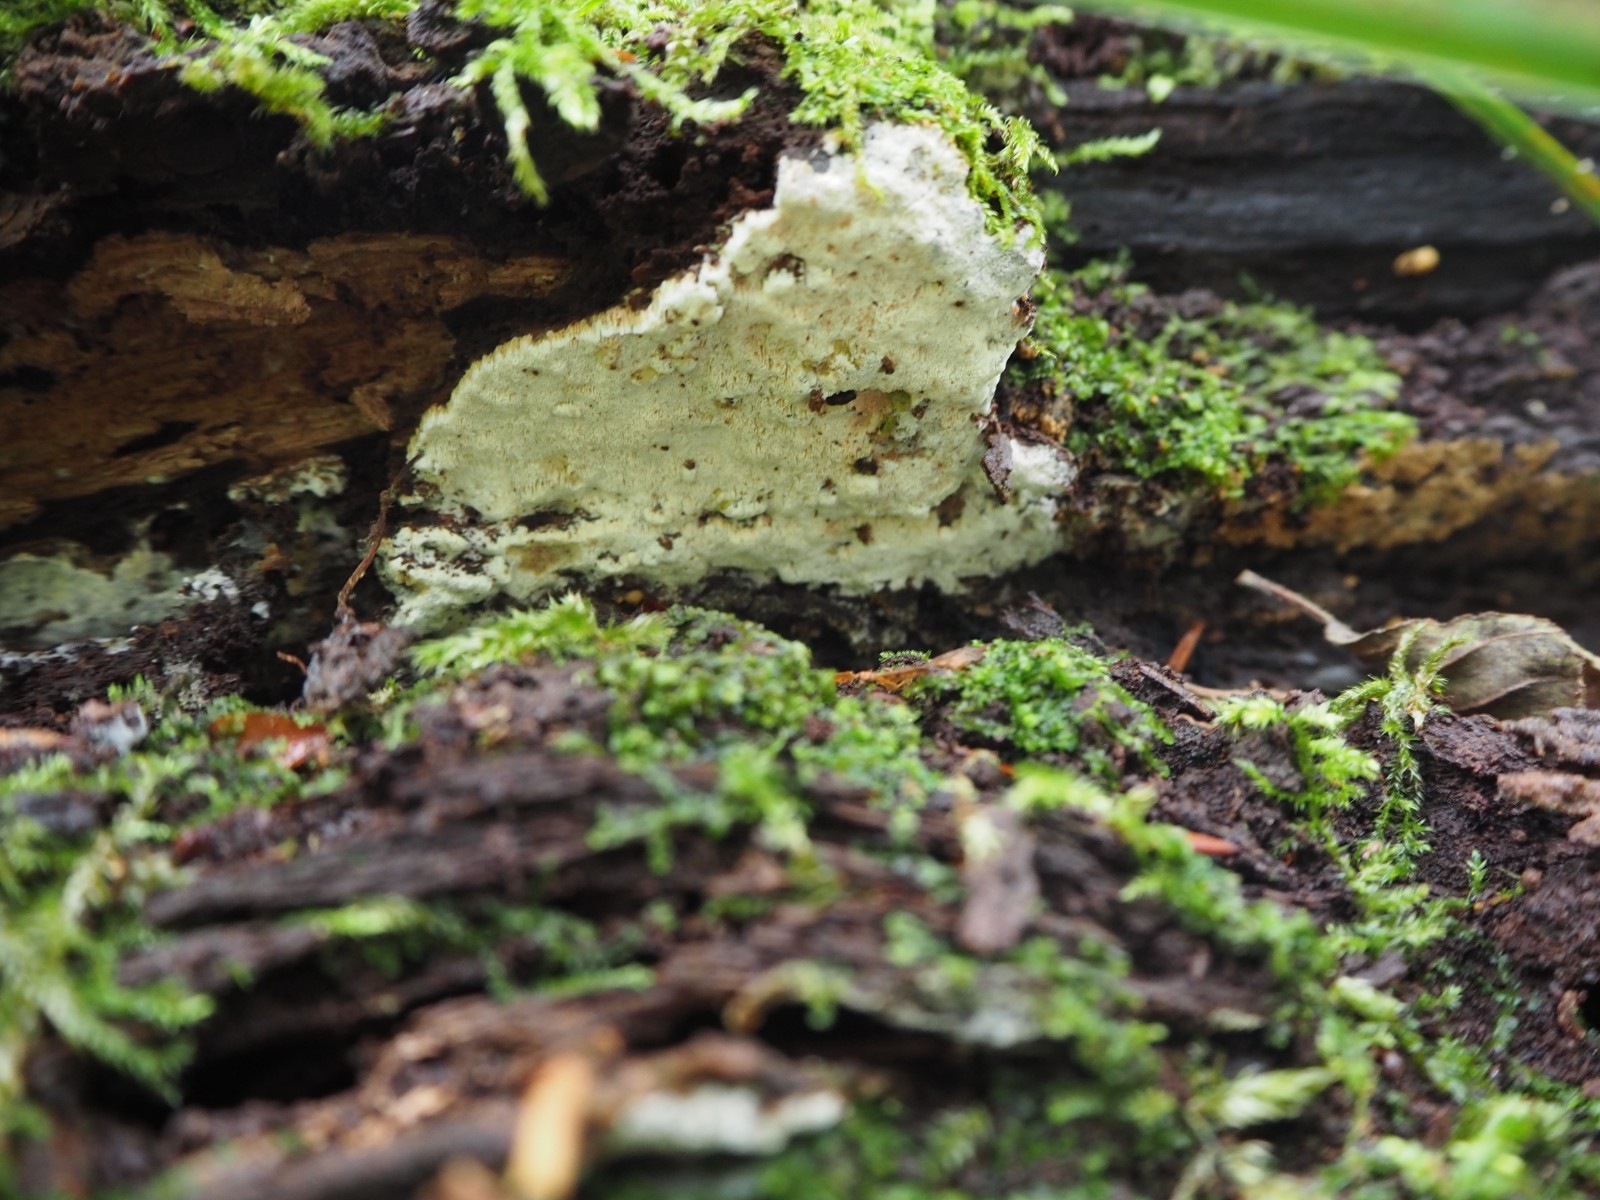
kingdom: Fungi
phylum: Basidiomycota
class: Agaricomycetes
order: Hymenochaetales
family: Rickenellaceae
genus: Sidera
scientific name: Sidera vulgaris
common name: fin flødeporesvamp
